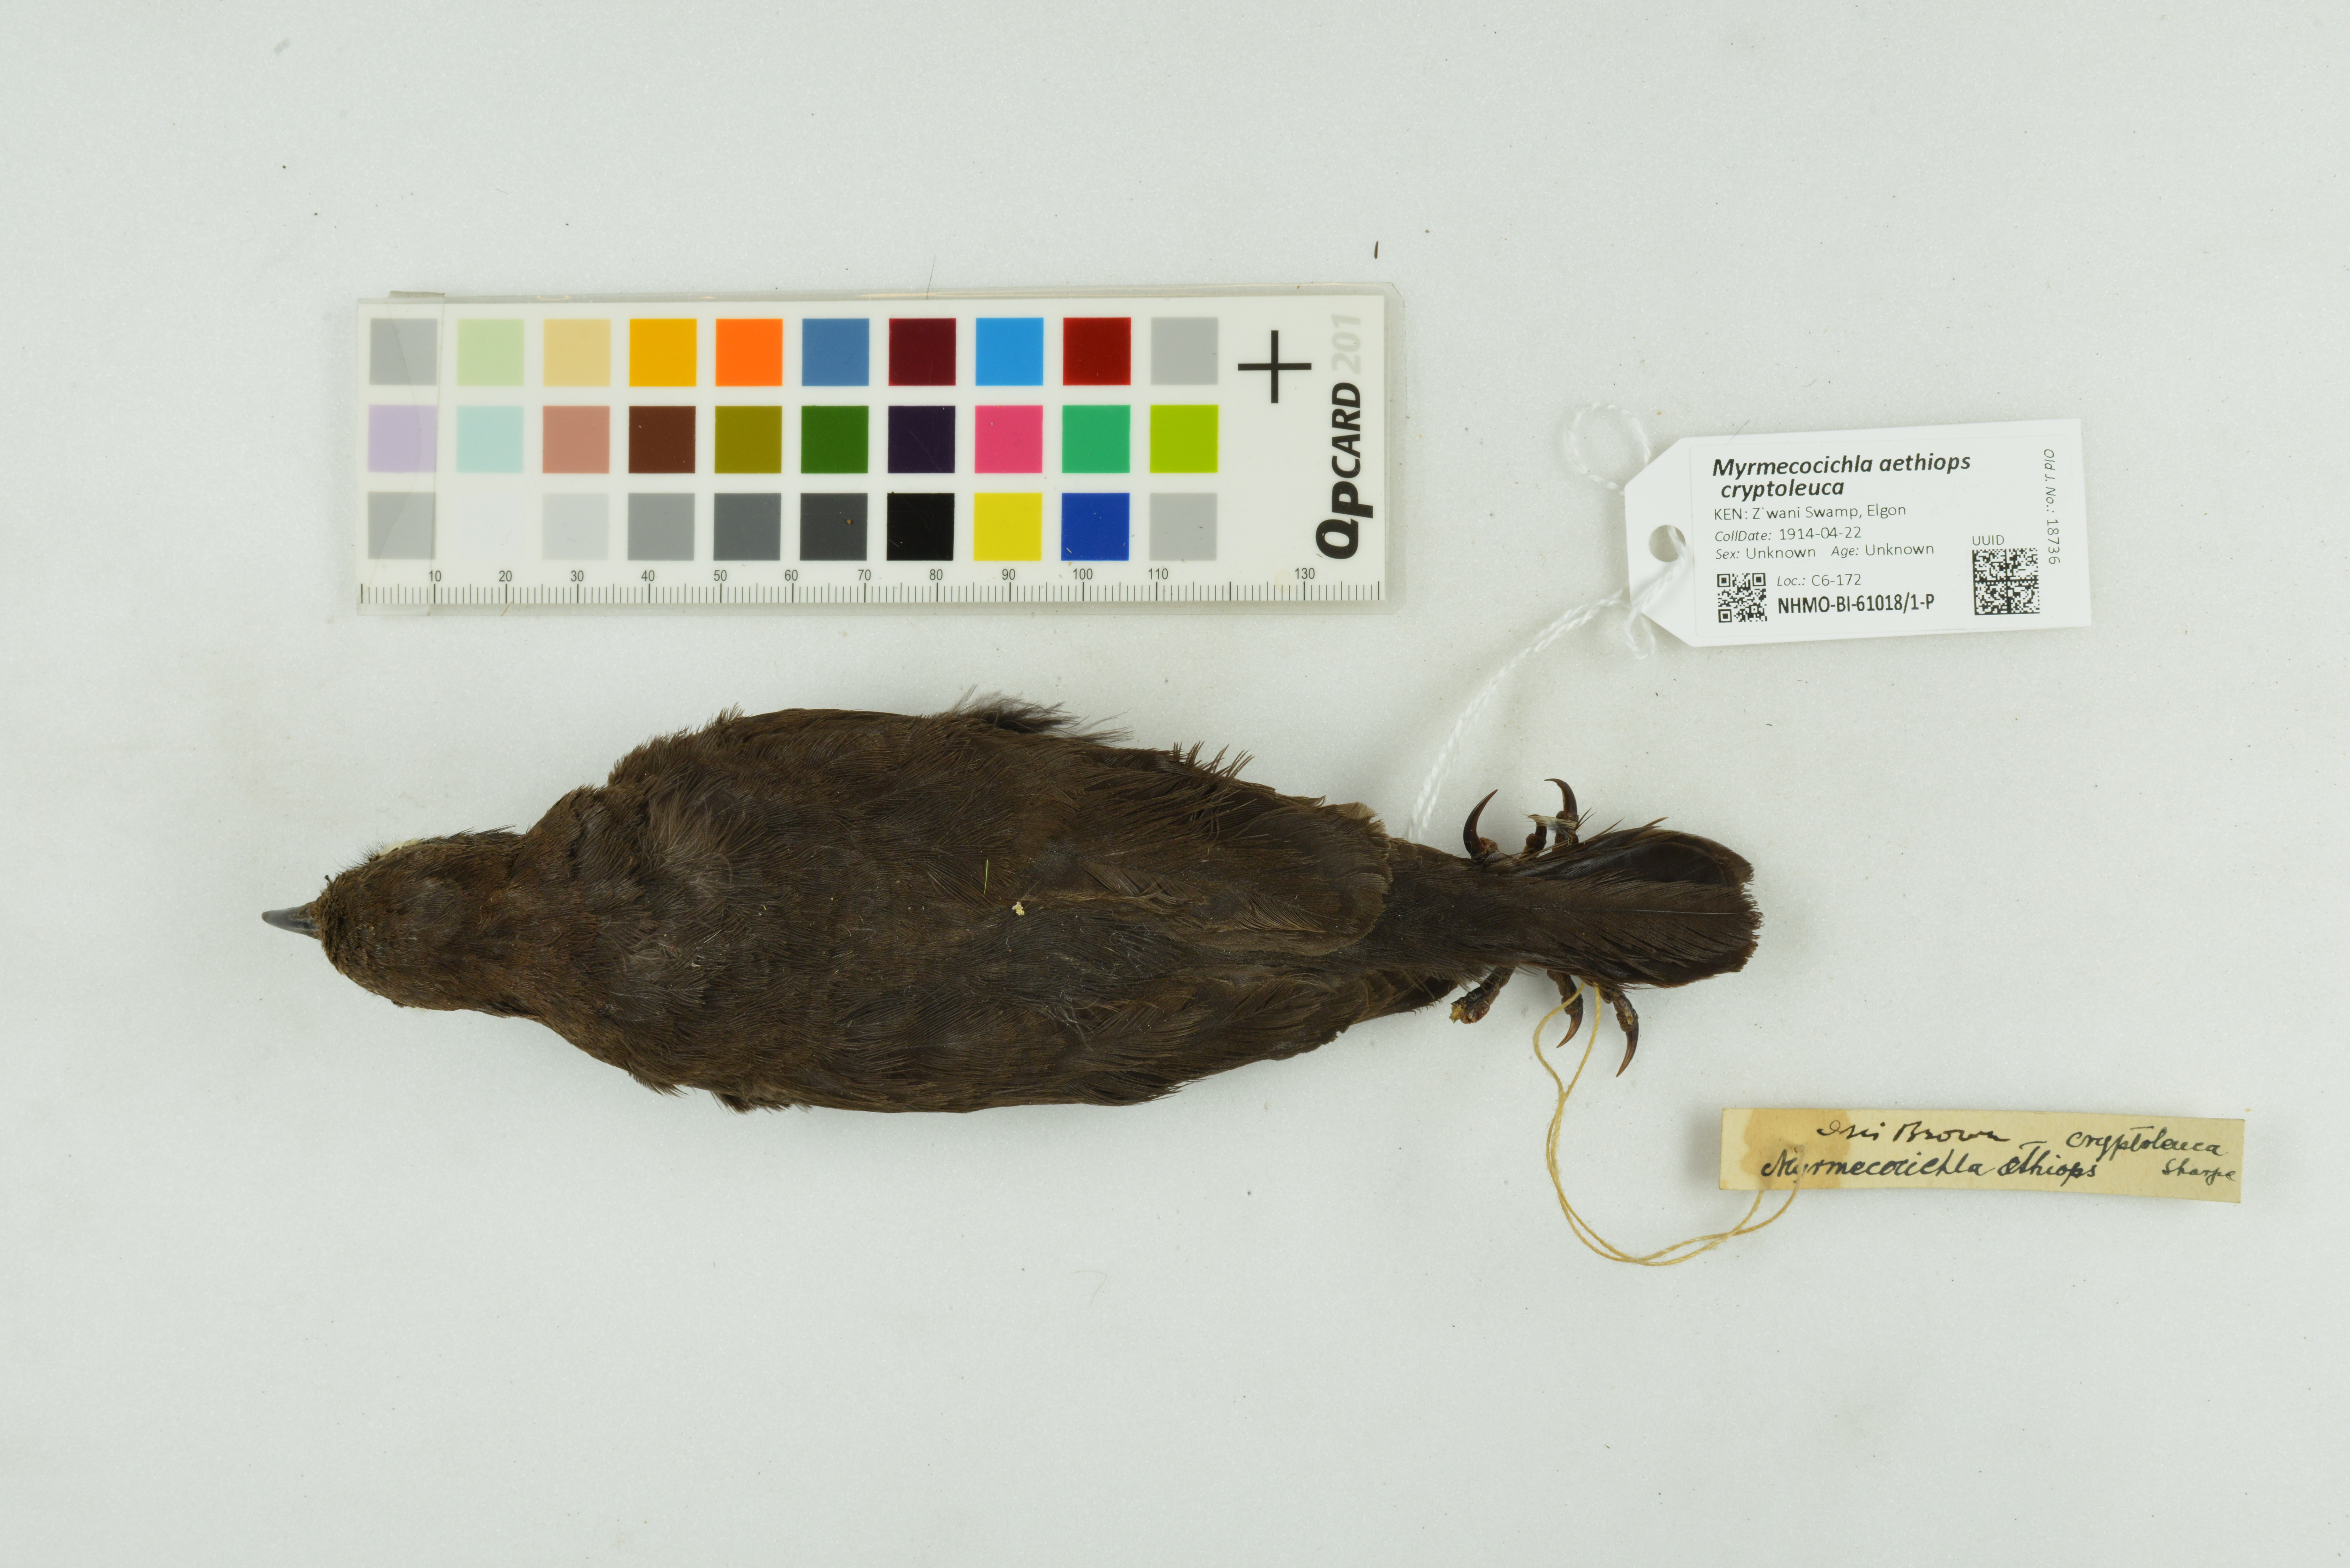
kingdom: Animalia
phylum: Chordata
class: Aves
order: Passeriformes
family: Muscicapidae
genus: Myrmecocichla
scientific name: Myrmecocichla aethiops
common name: Anteater chat
